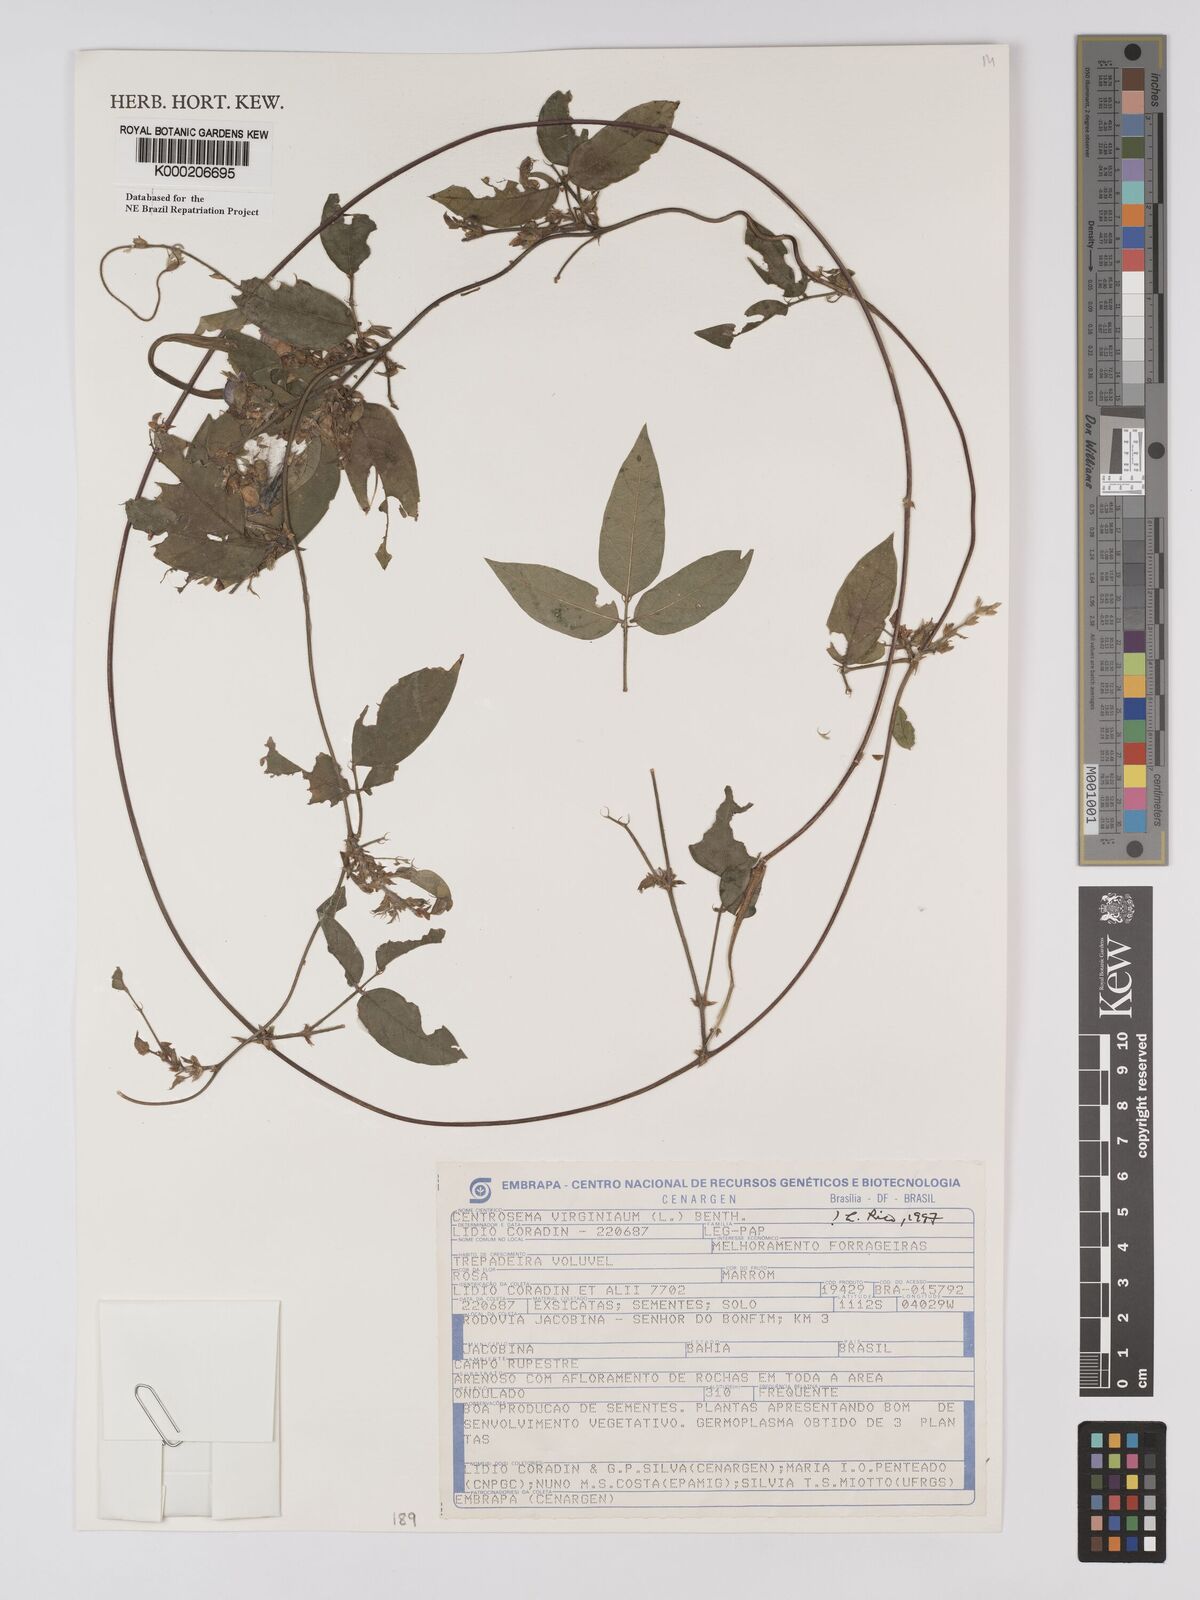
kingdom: Plantae
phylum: Tracheophyta
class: Magnoliopsida
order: Fabales
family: Fabaceae
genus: Centrosema
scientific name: Centrosema virginianum
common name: Butterfly-pea
